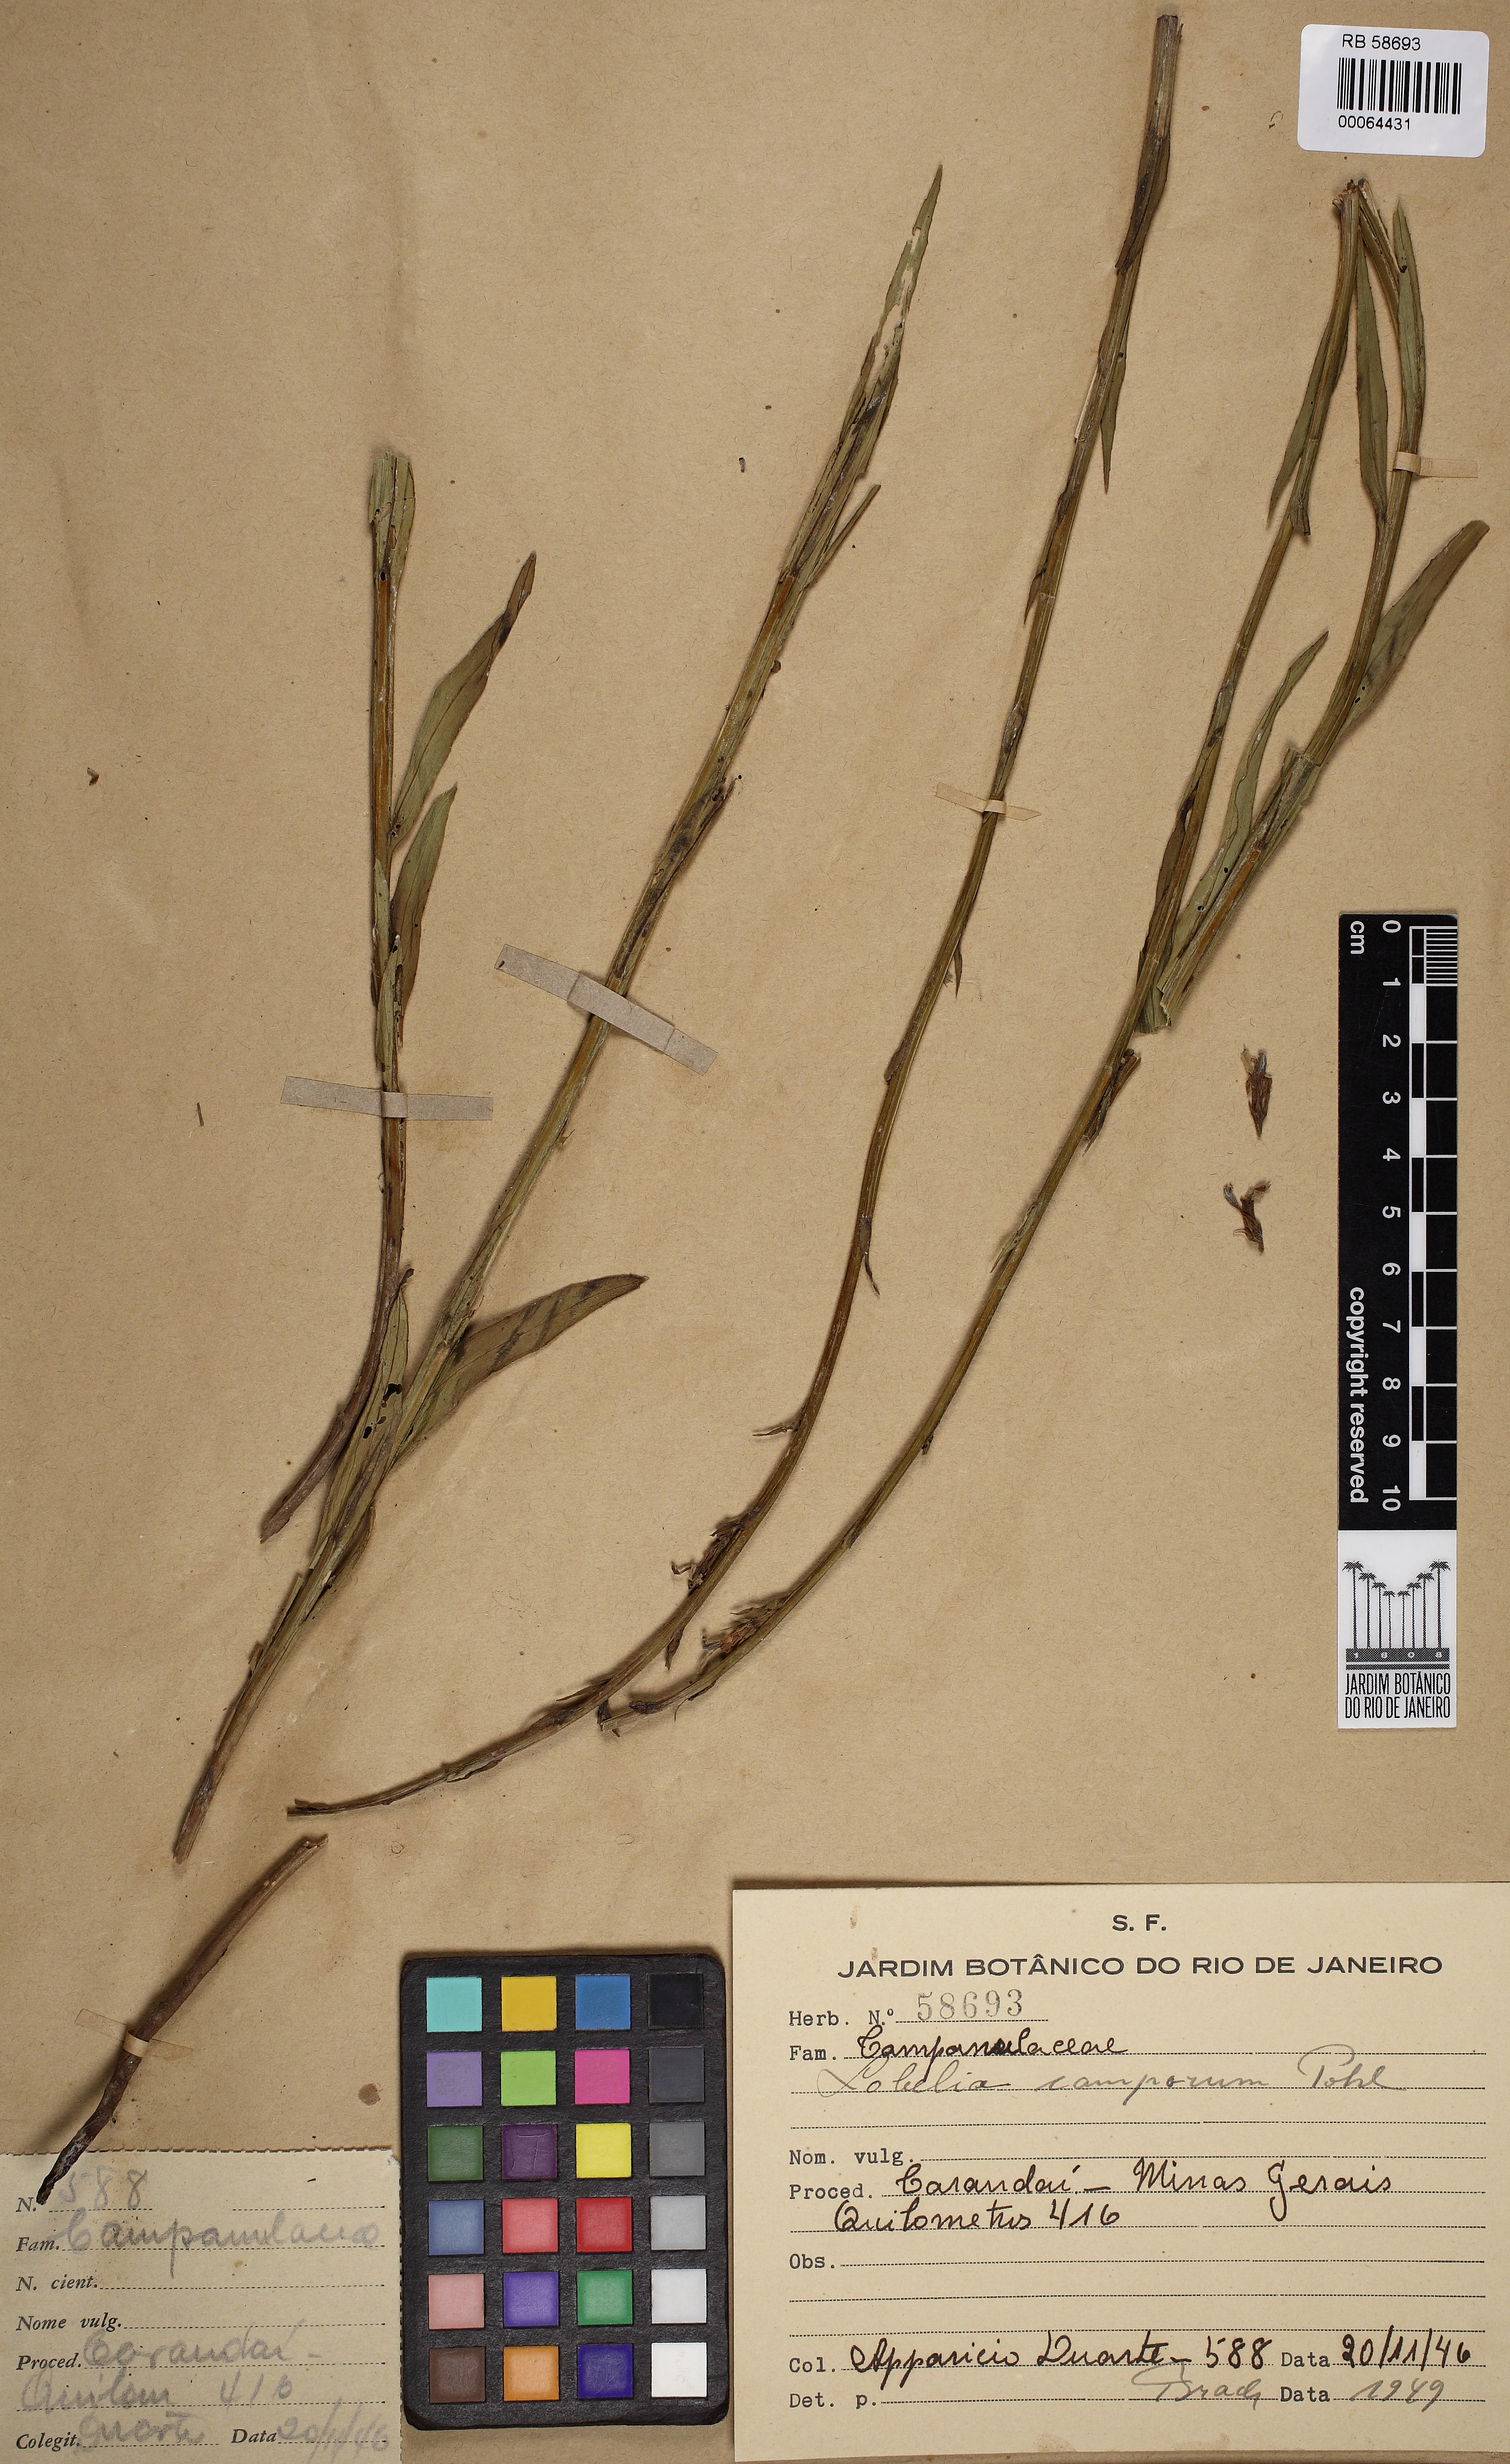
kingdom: Plantae
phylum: Tracheophyta
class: Magnoliopsida
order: Asterales
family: Campanulaceae
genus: Lobelia
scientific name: Lobelia camporum
